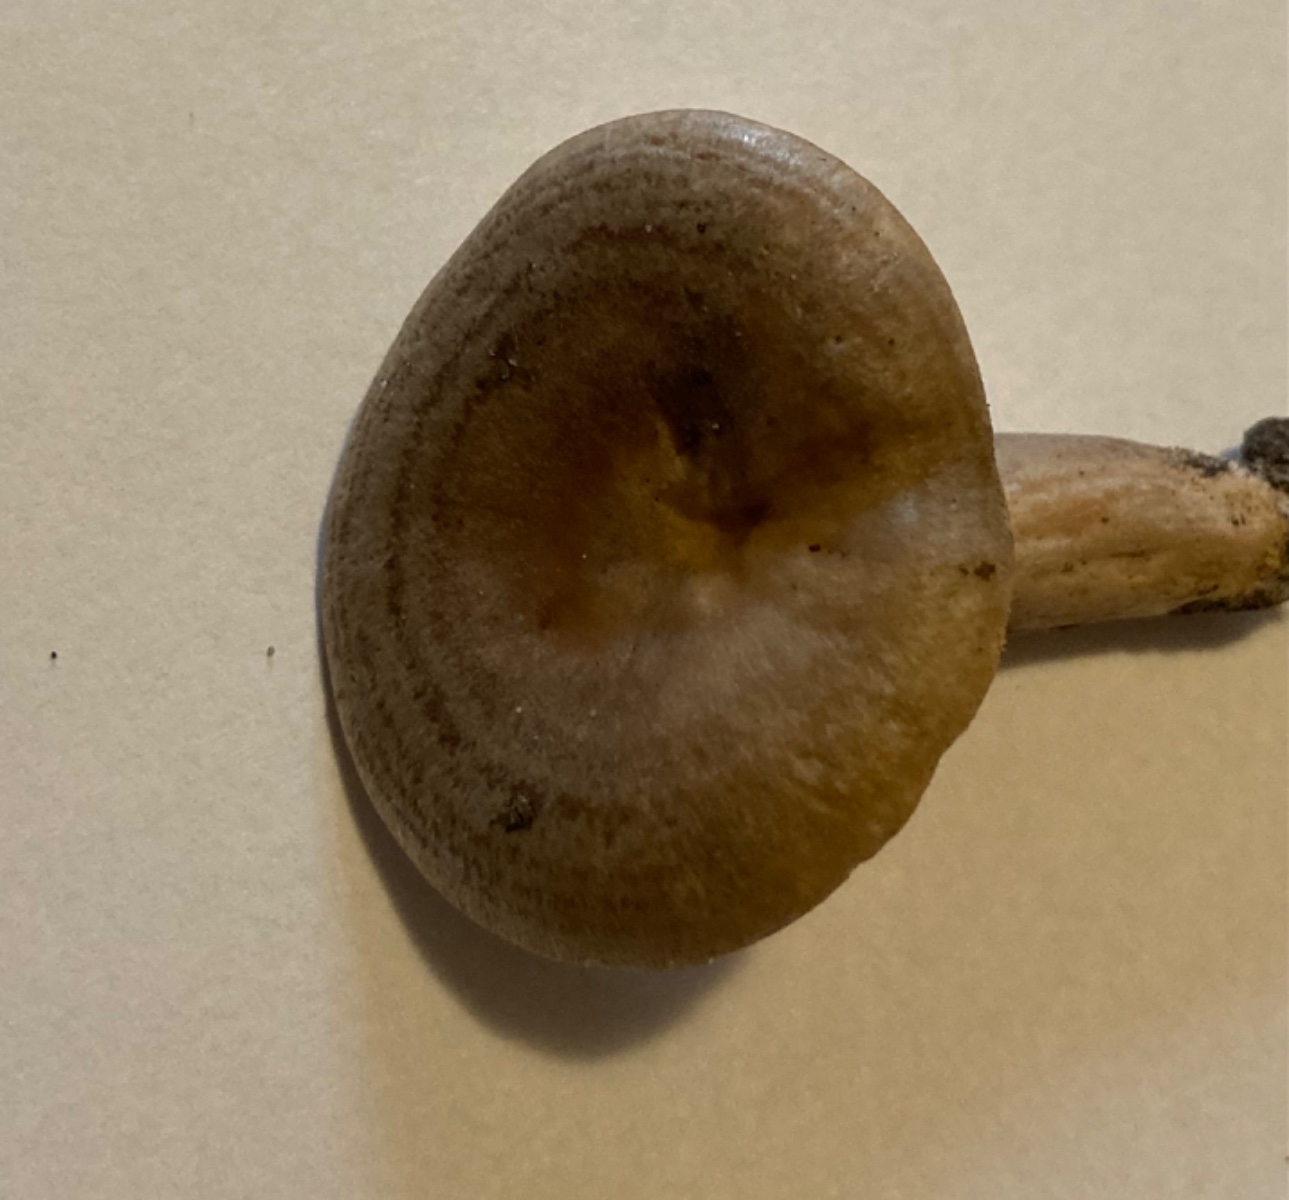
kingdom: Fungi
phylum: Basidiomycota
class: Agaricomycetes
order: Russulales
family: Russulaceae
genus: Lactarius
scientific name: Lactarius pyrogalus
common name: hassel-mælkehat
